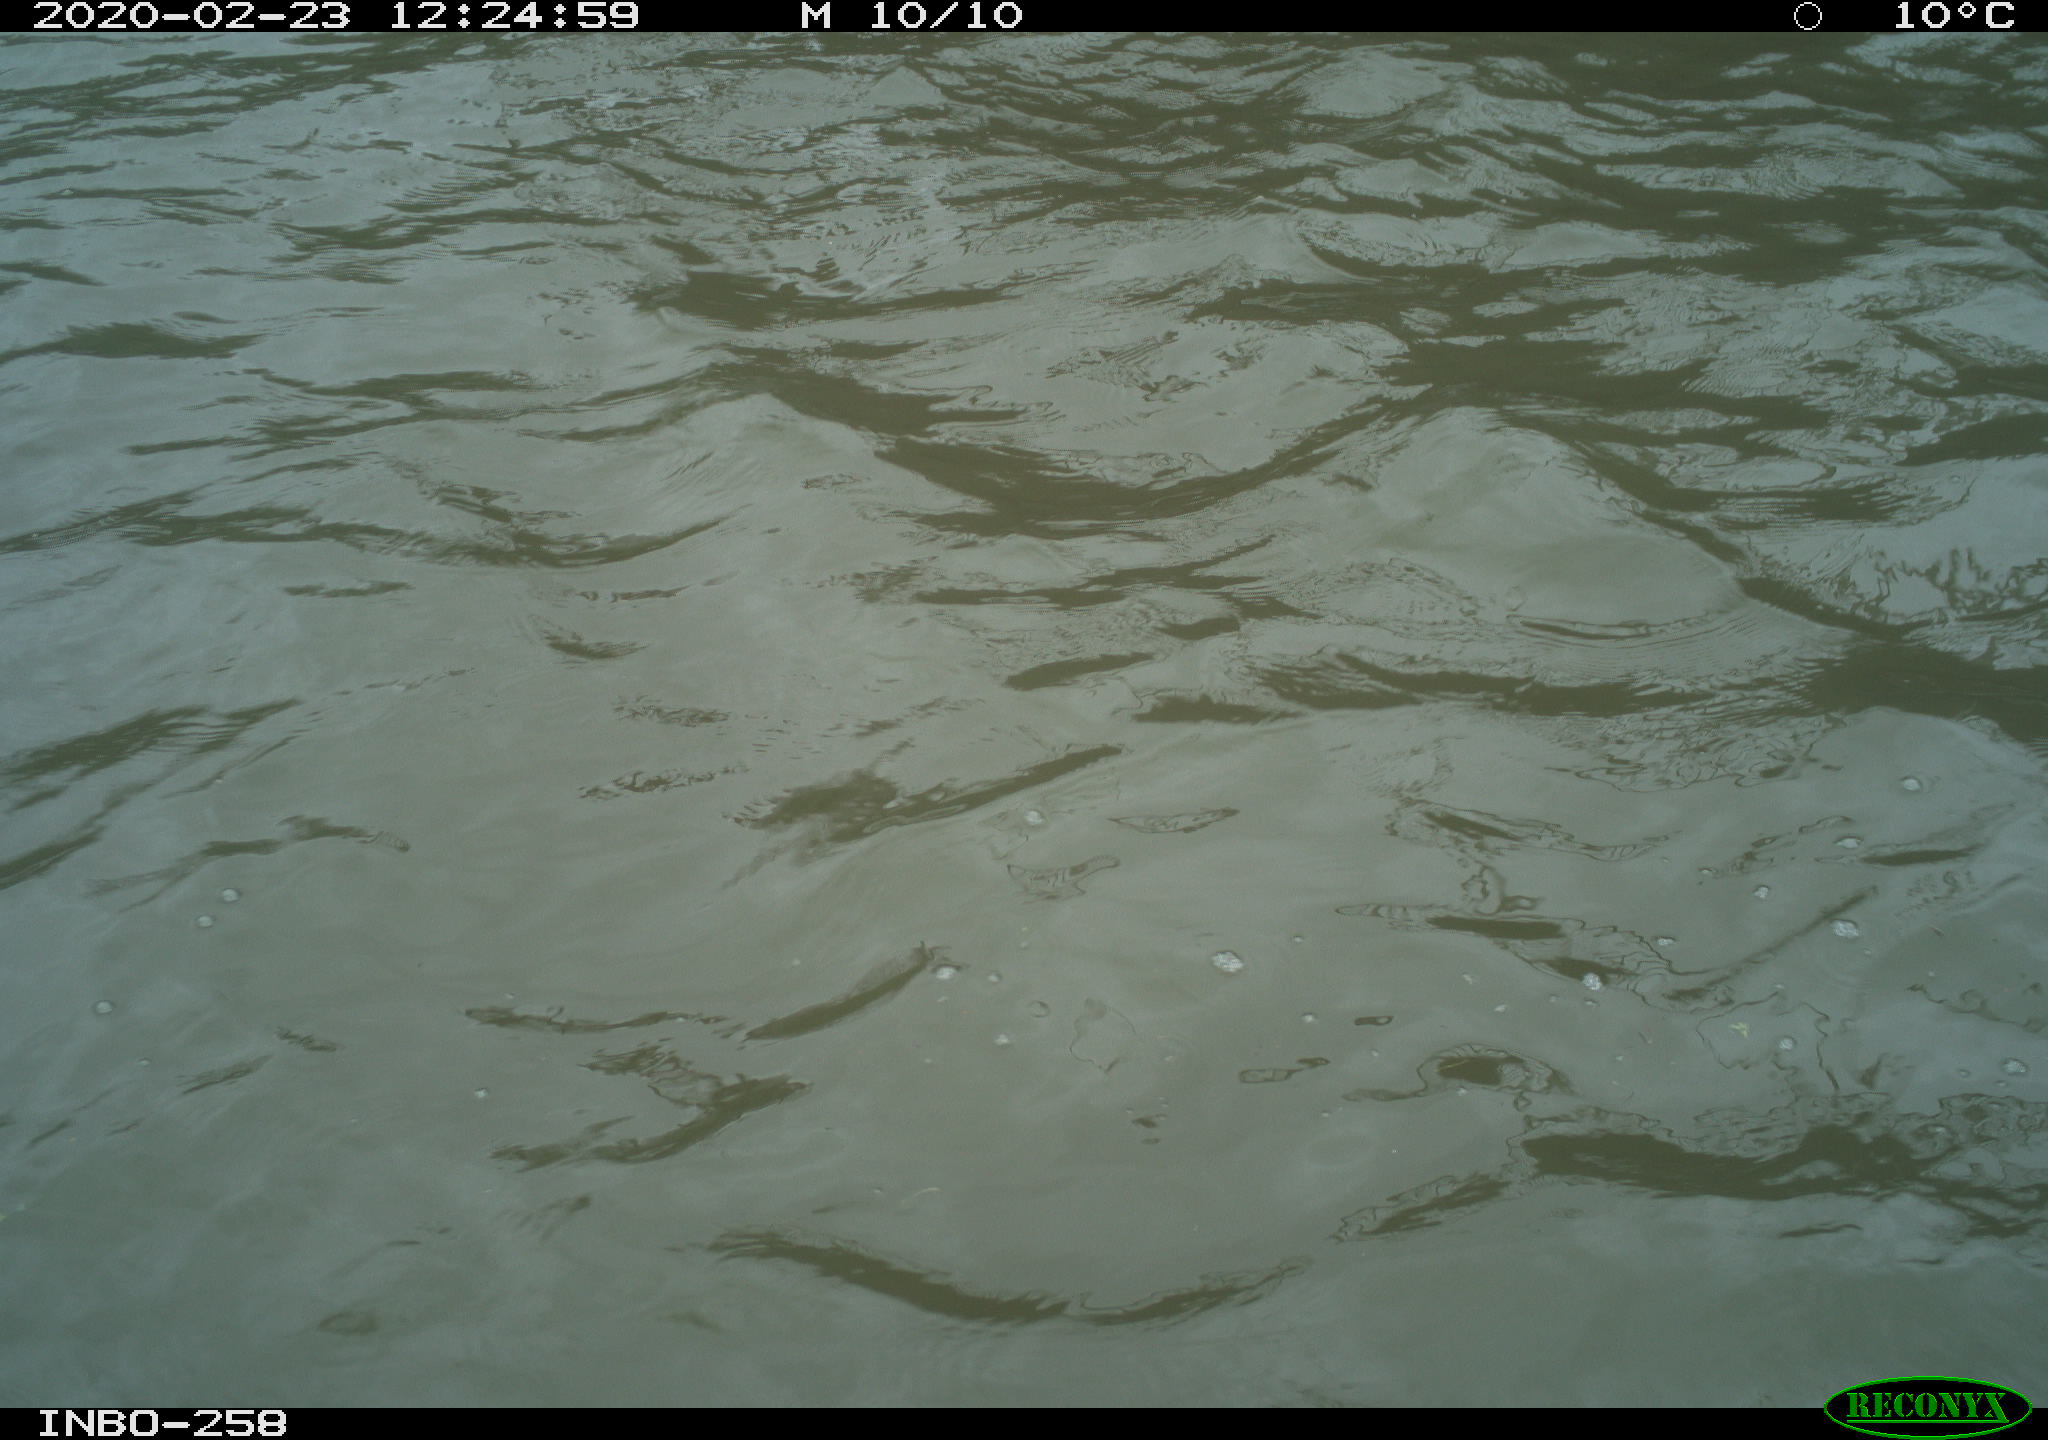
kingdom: Animalia
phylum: Chordata
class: Aves
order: Gruiformes
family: Rallidae
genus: Gallinula
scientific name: Gallinula chloropus
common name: Common moorhen
